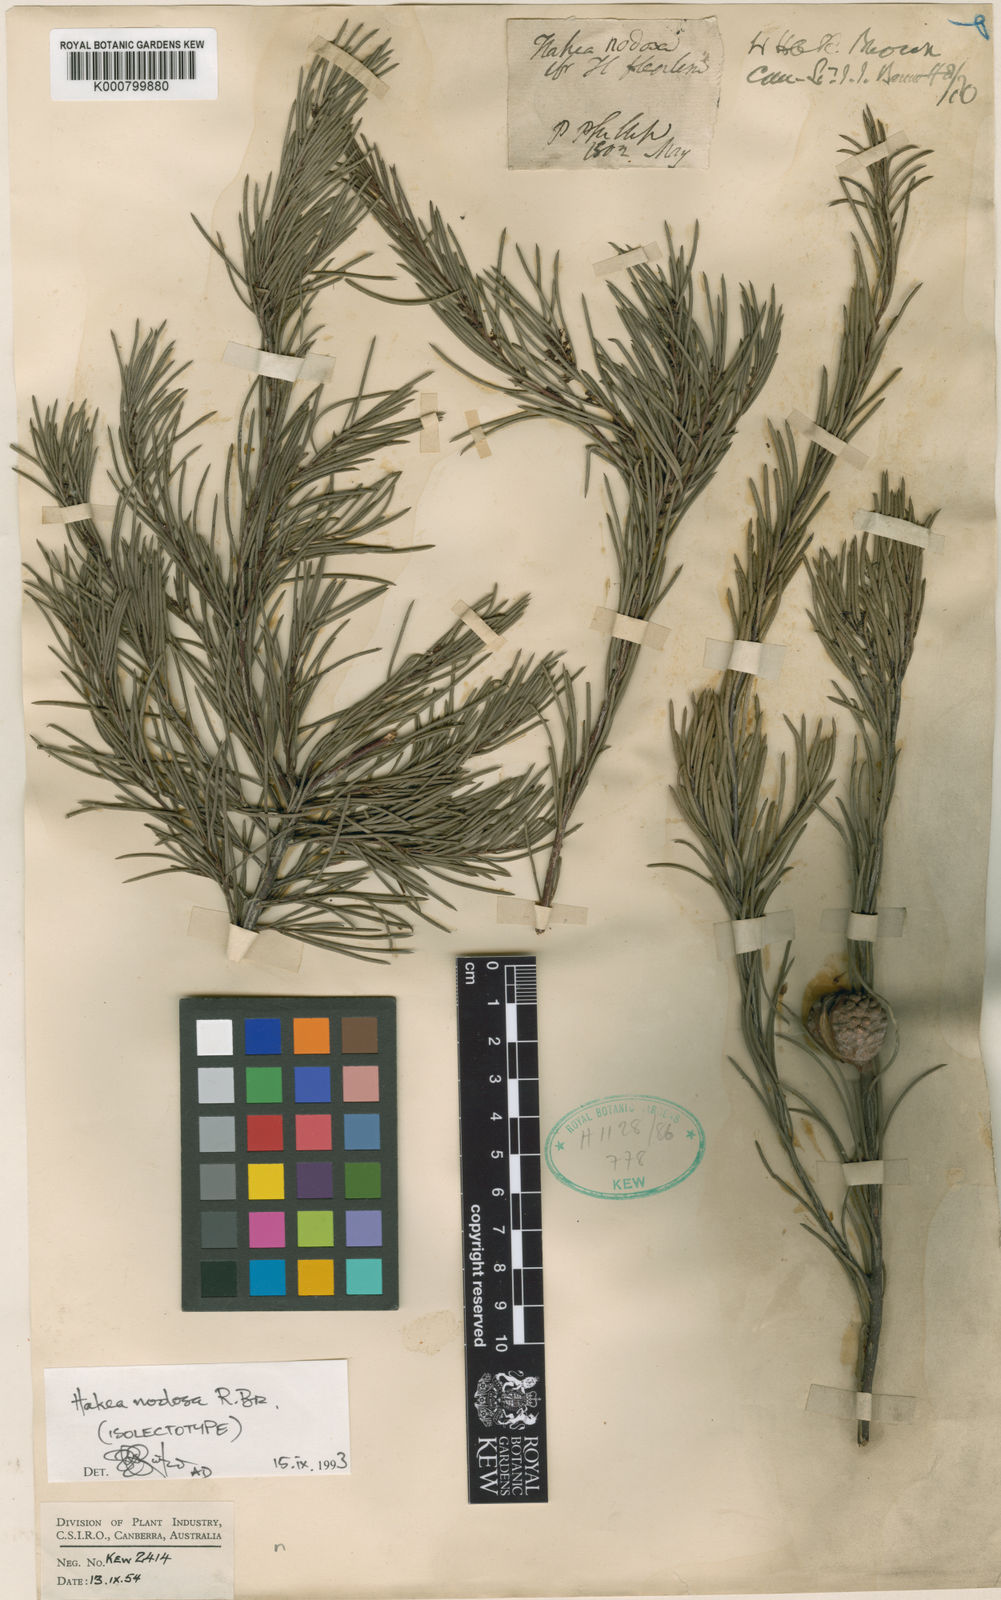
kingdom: Plantae
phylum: Tracheophyta
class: Magnoliopsida
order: Proteales
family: Proteaceae
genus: Hakea
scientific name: Hakea nodosa
